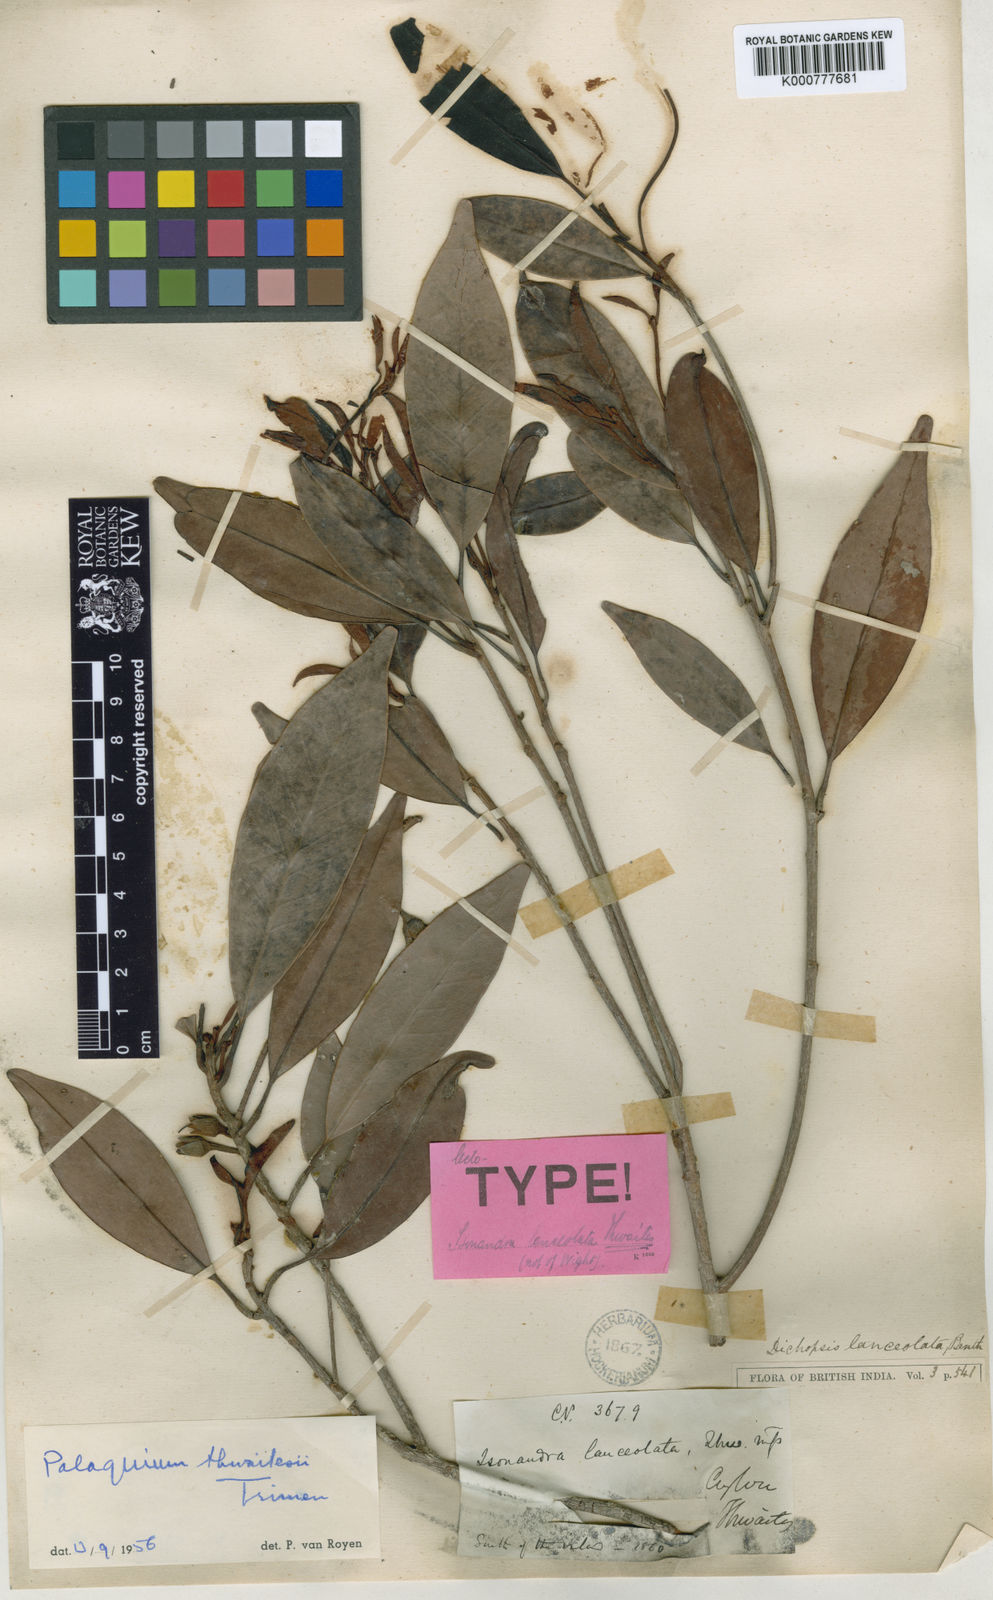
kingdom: Plantae
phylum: Tracheophyta
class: Magnoliopsida
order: Ericales
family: Sapotaceae
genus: Palaquium
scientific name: Palaquium thwaitesii
